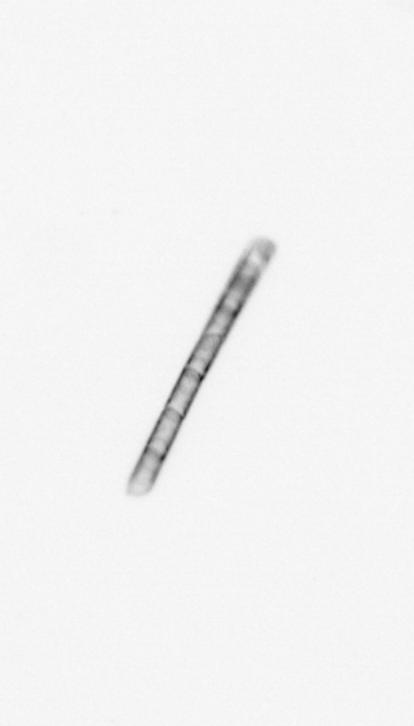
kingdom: Chromista
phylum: Ochrophyta
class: Bacillariophyceae
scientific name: Bacillariophyceae
